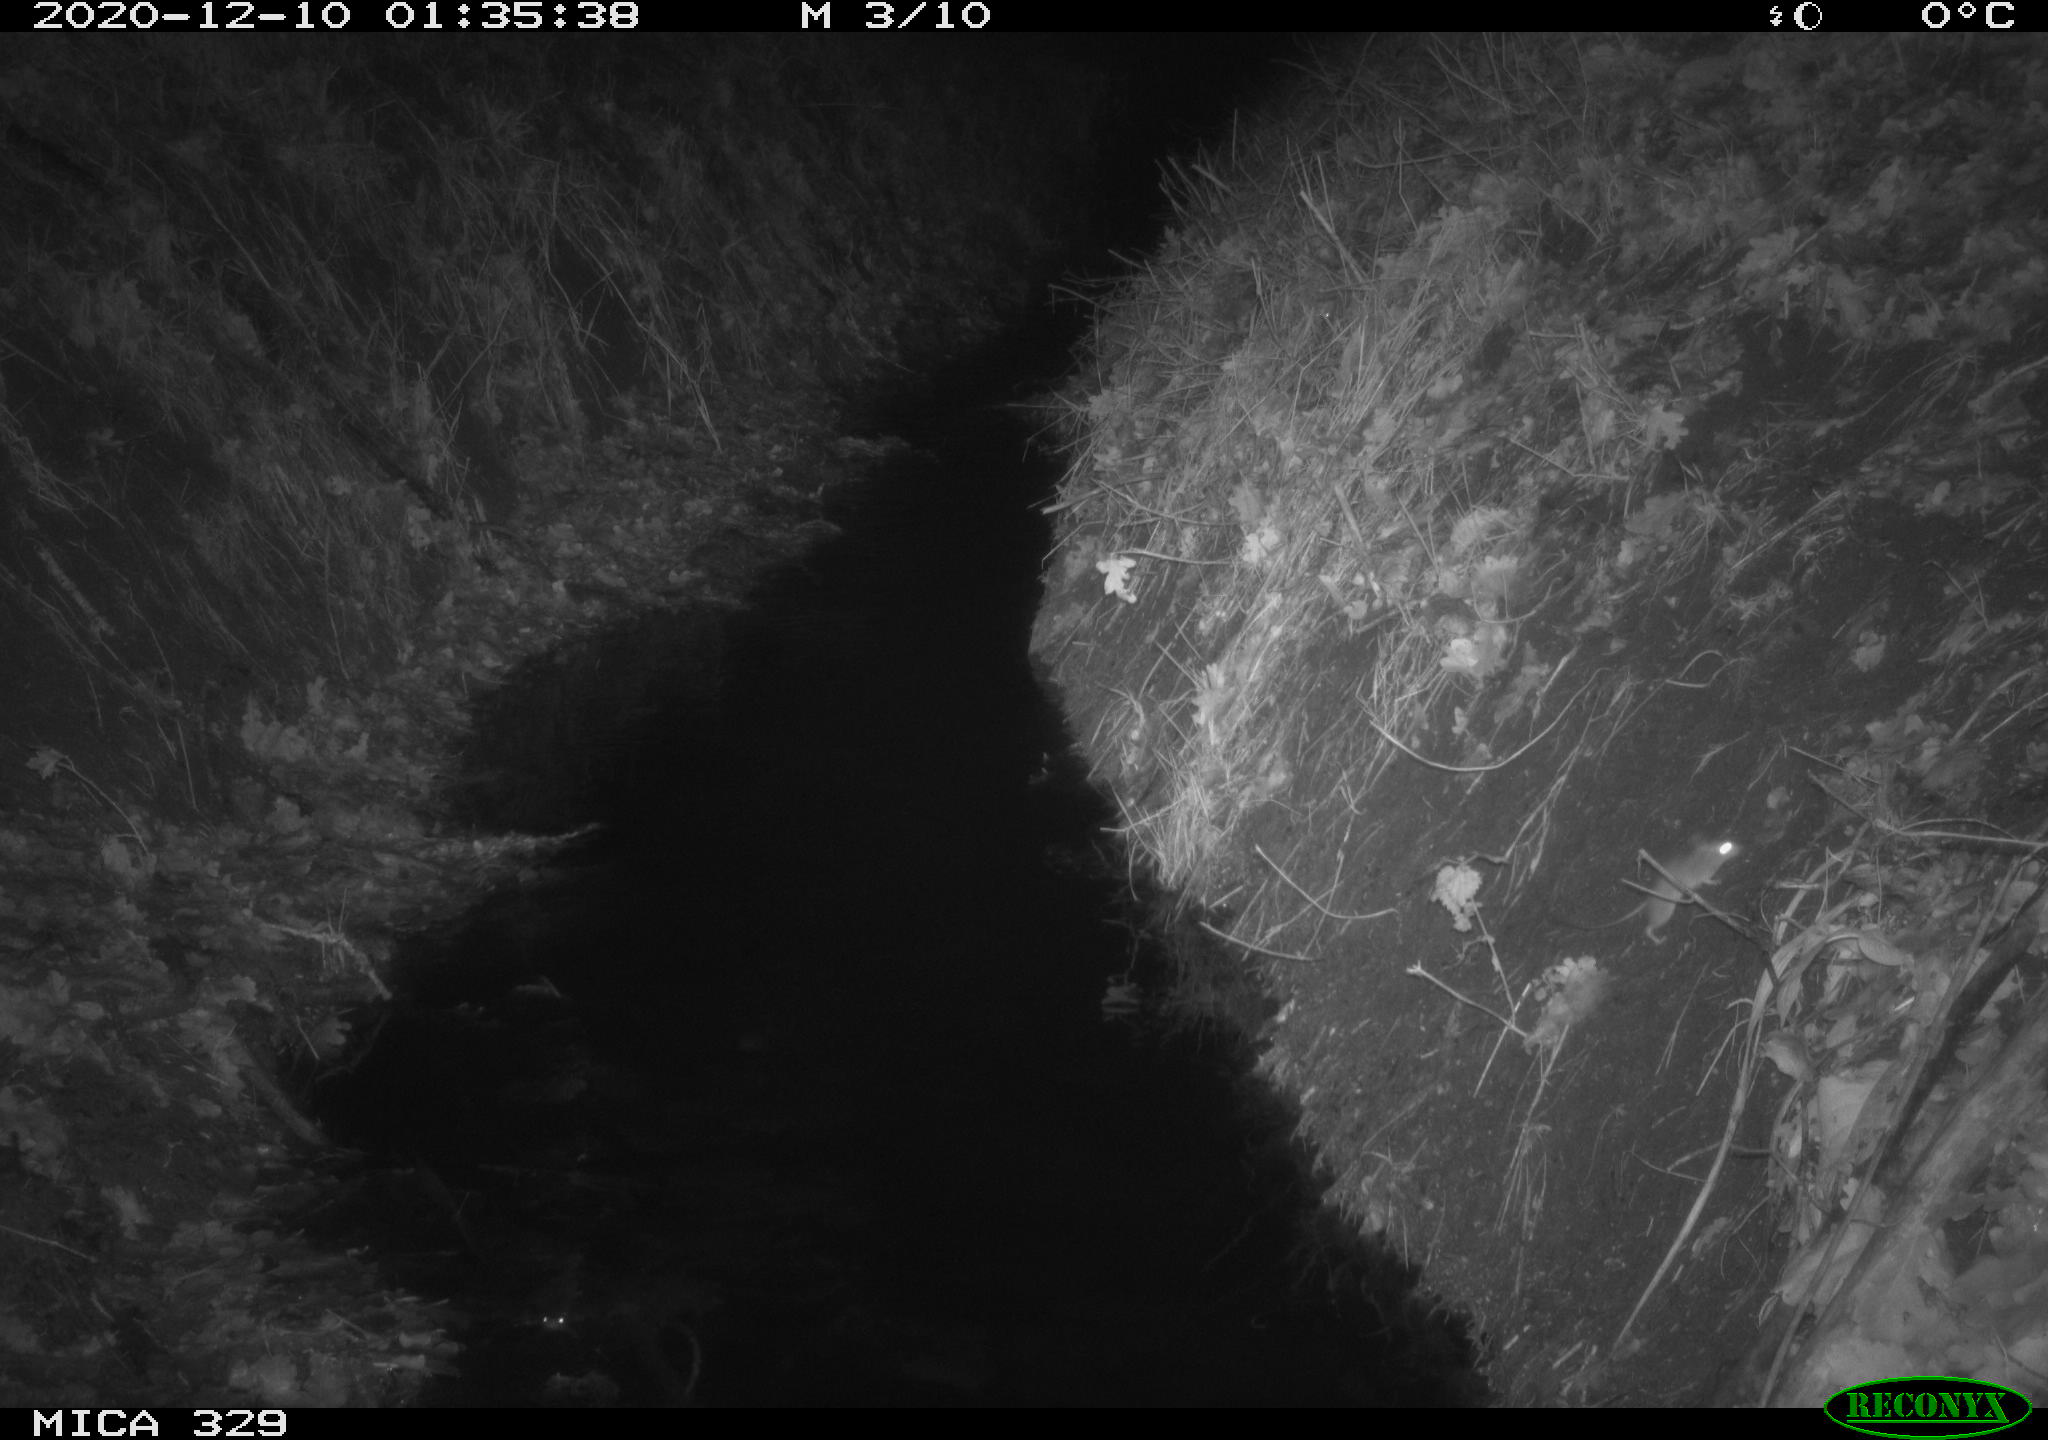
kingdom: Animalia
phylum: Chordata
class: Mammalia
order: Rodentia
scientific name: Rodentia
